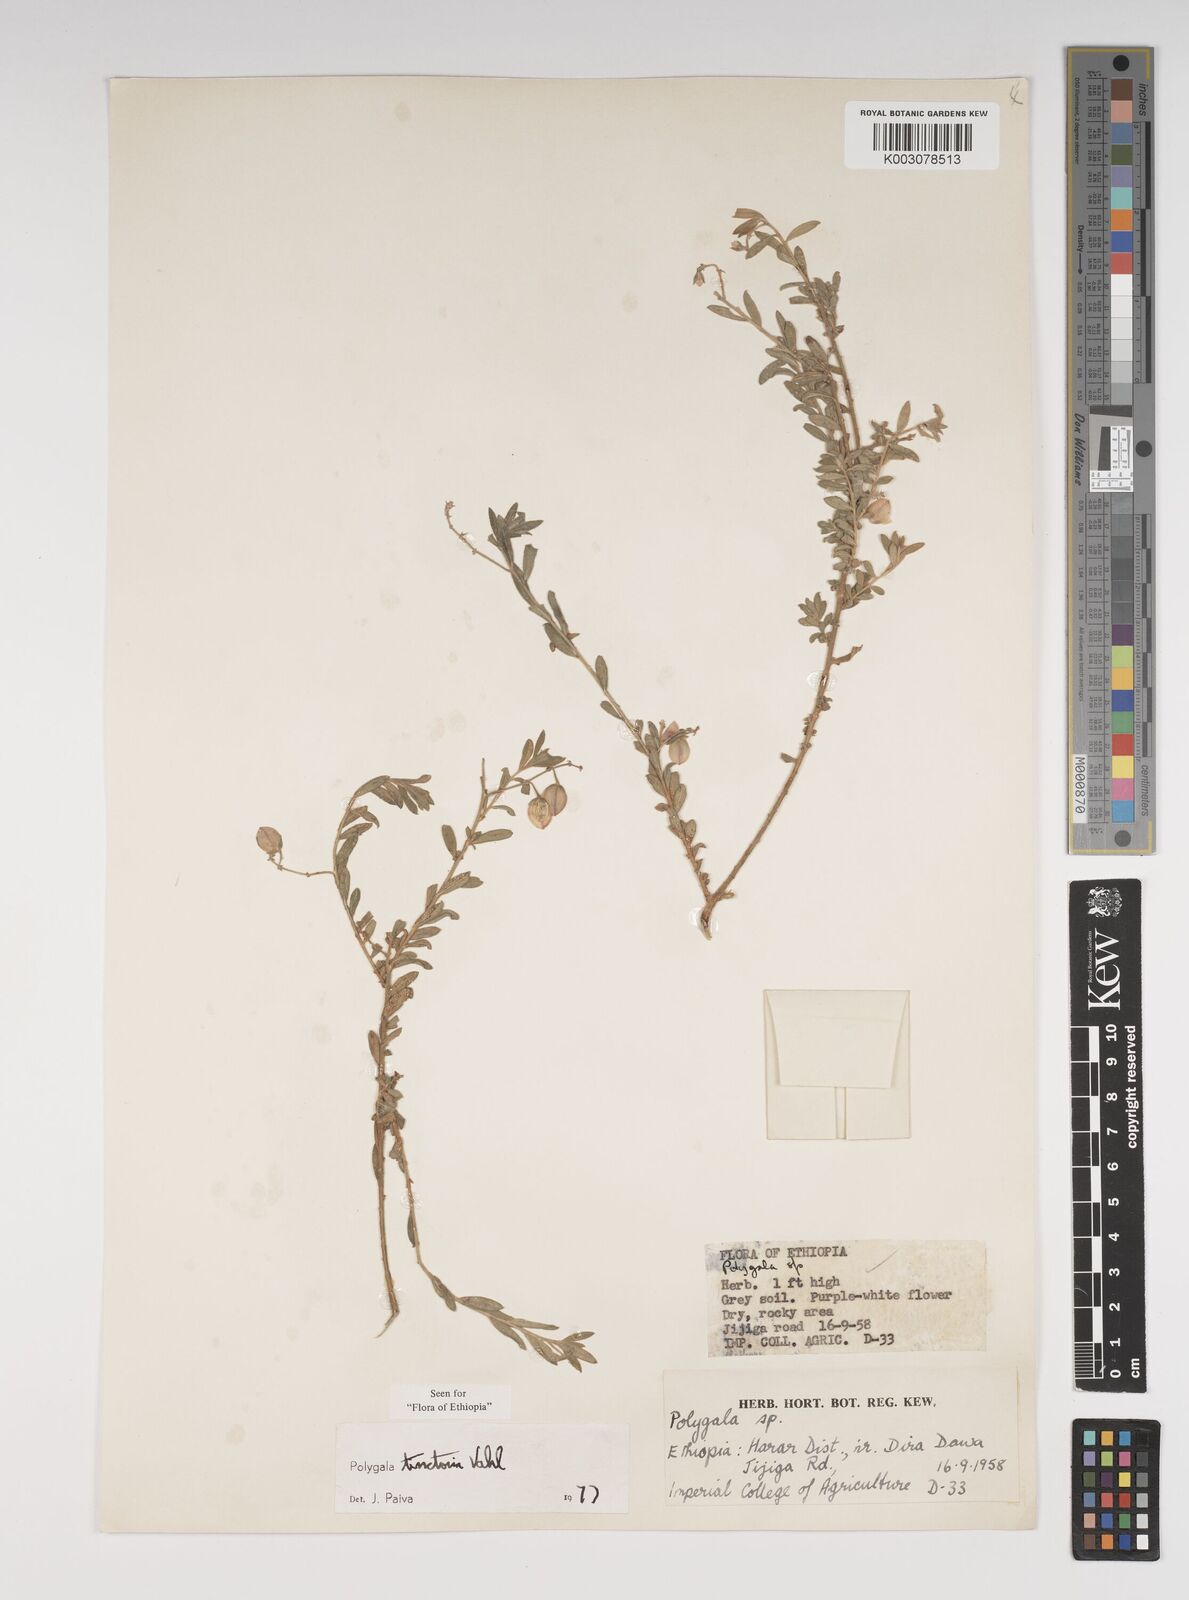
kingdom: Plantae
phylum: Tracheophyta
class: Magnoliopsida
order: Fabales
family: Polygalaceae
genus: Polygala
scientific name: Polygala tinctoria
